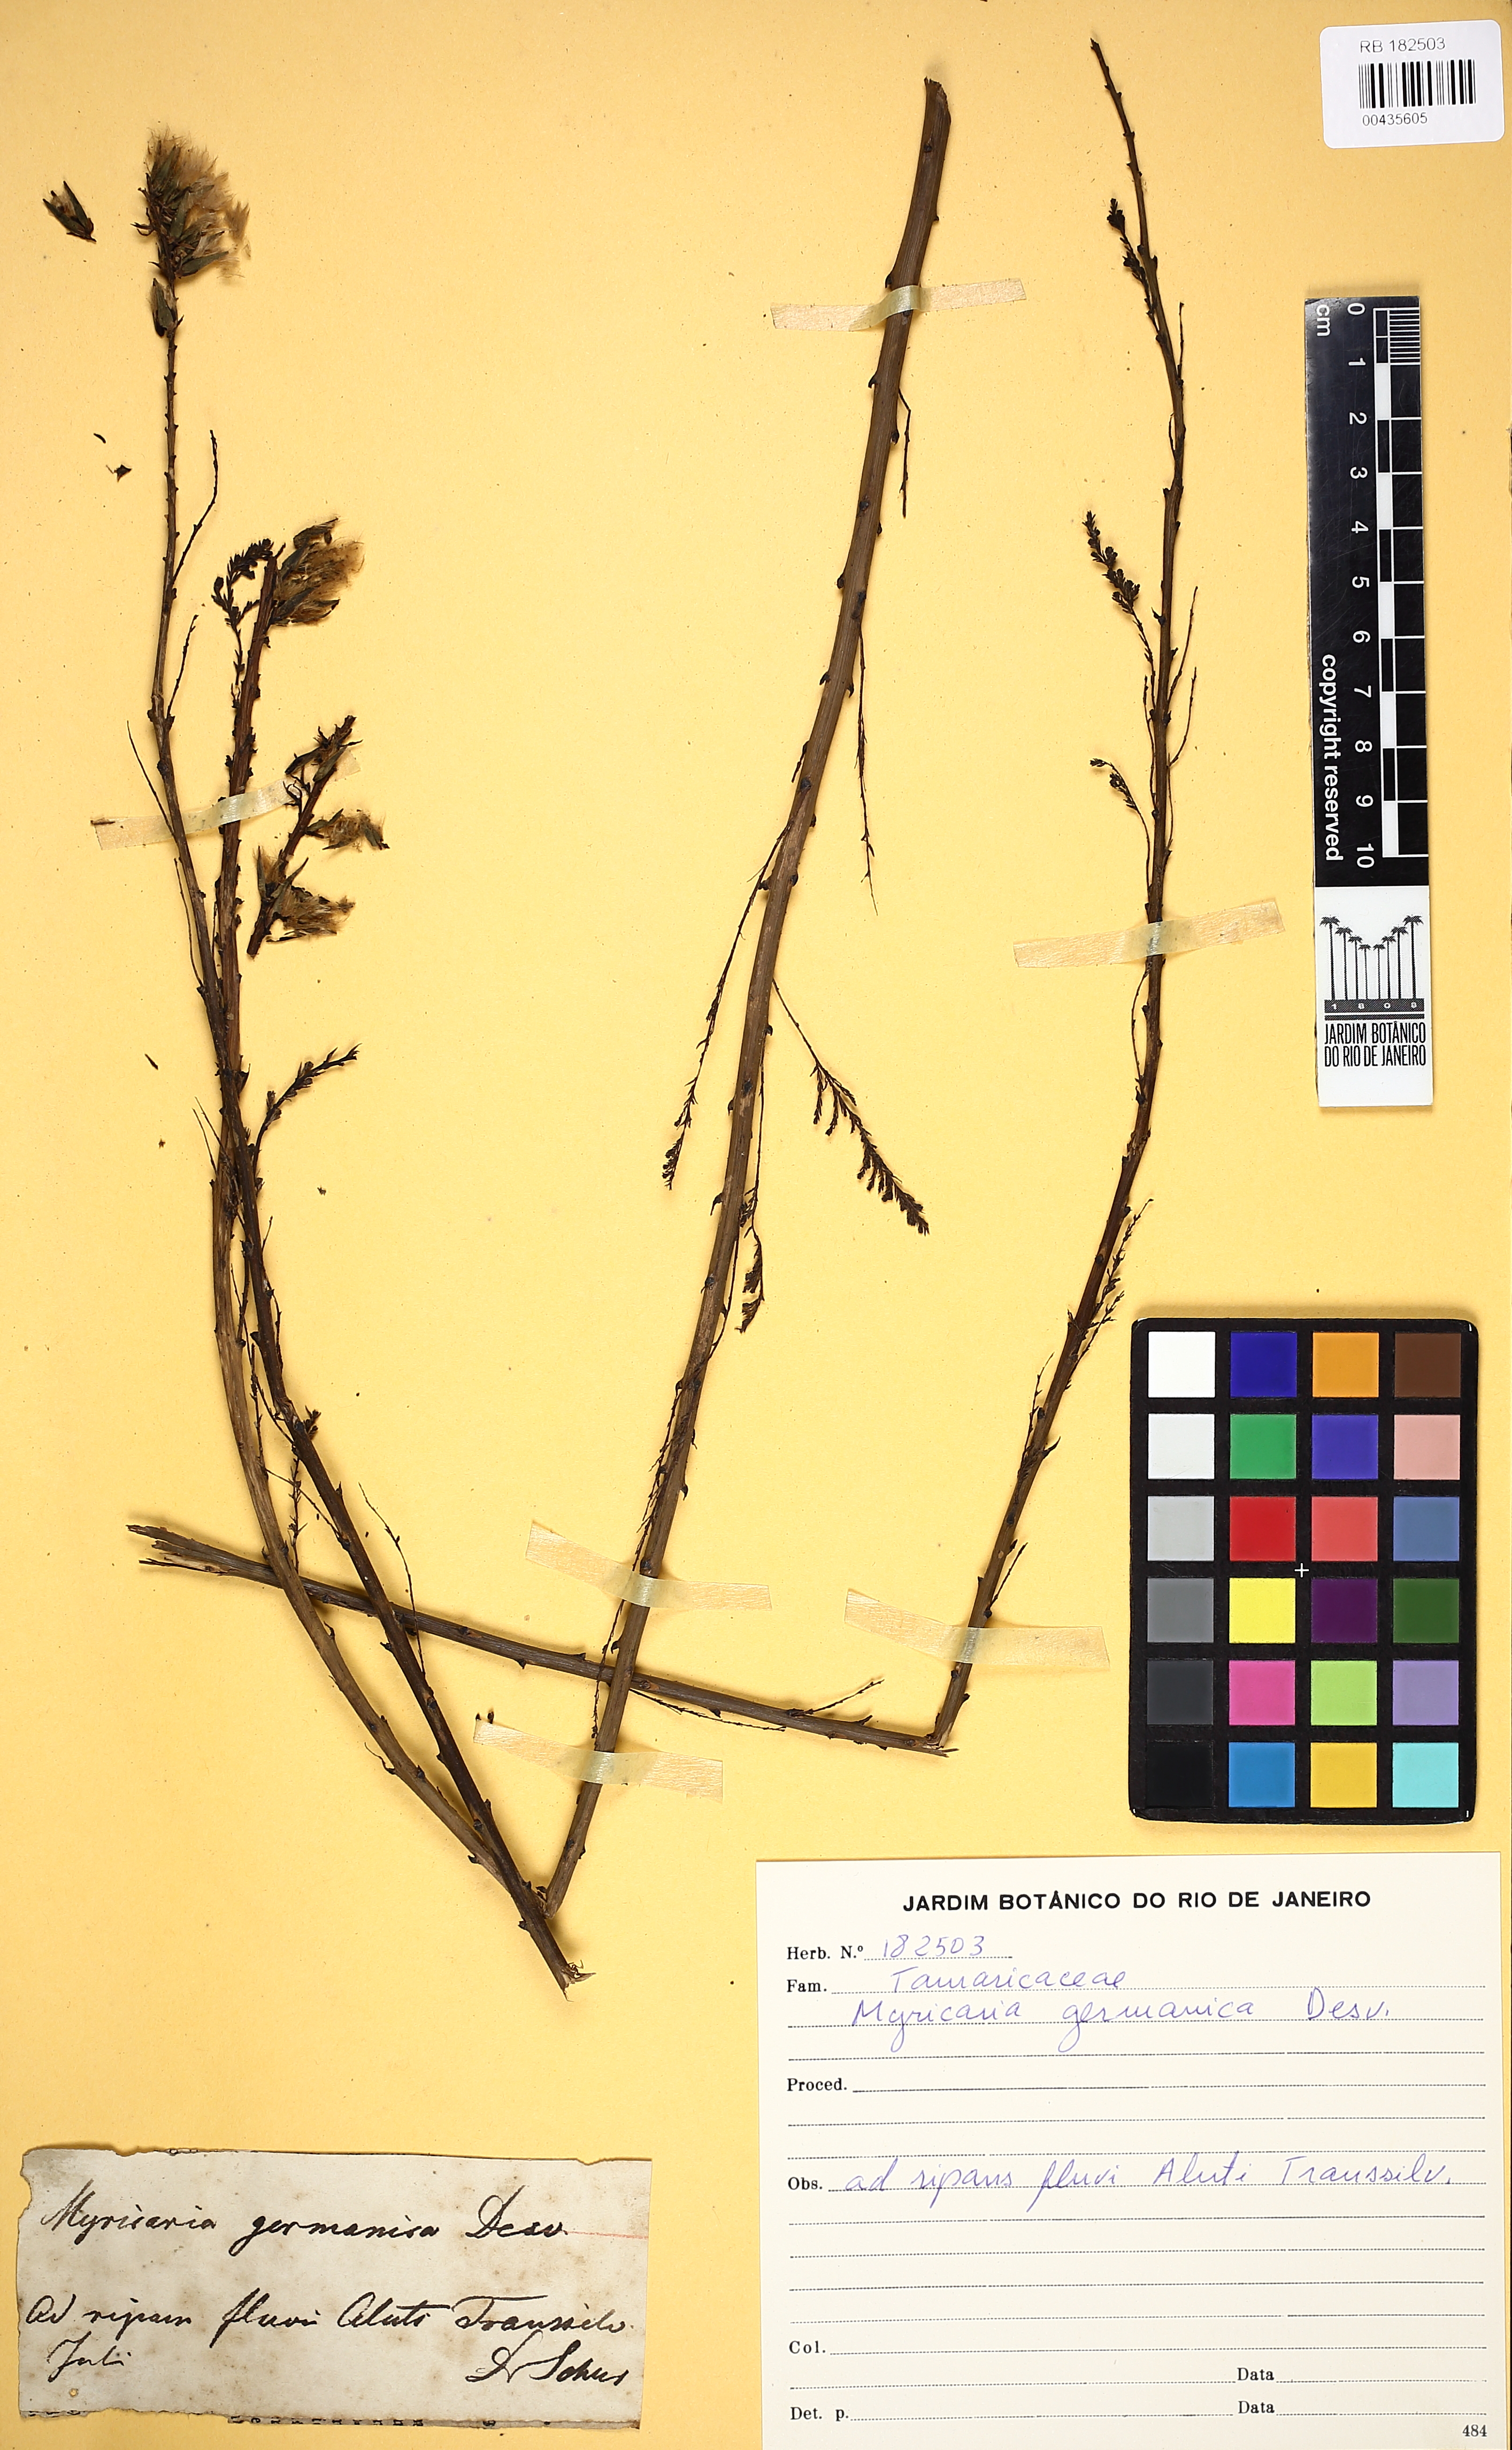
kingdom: Plantae
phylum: Tracheophyta
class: Magnoliopsida
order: Caryophyllales
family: Tamaricaceae
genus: Myricaria
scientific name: Myricaria germanica
